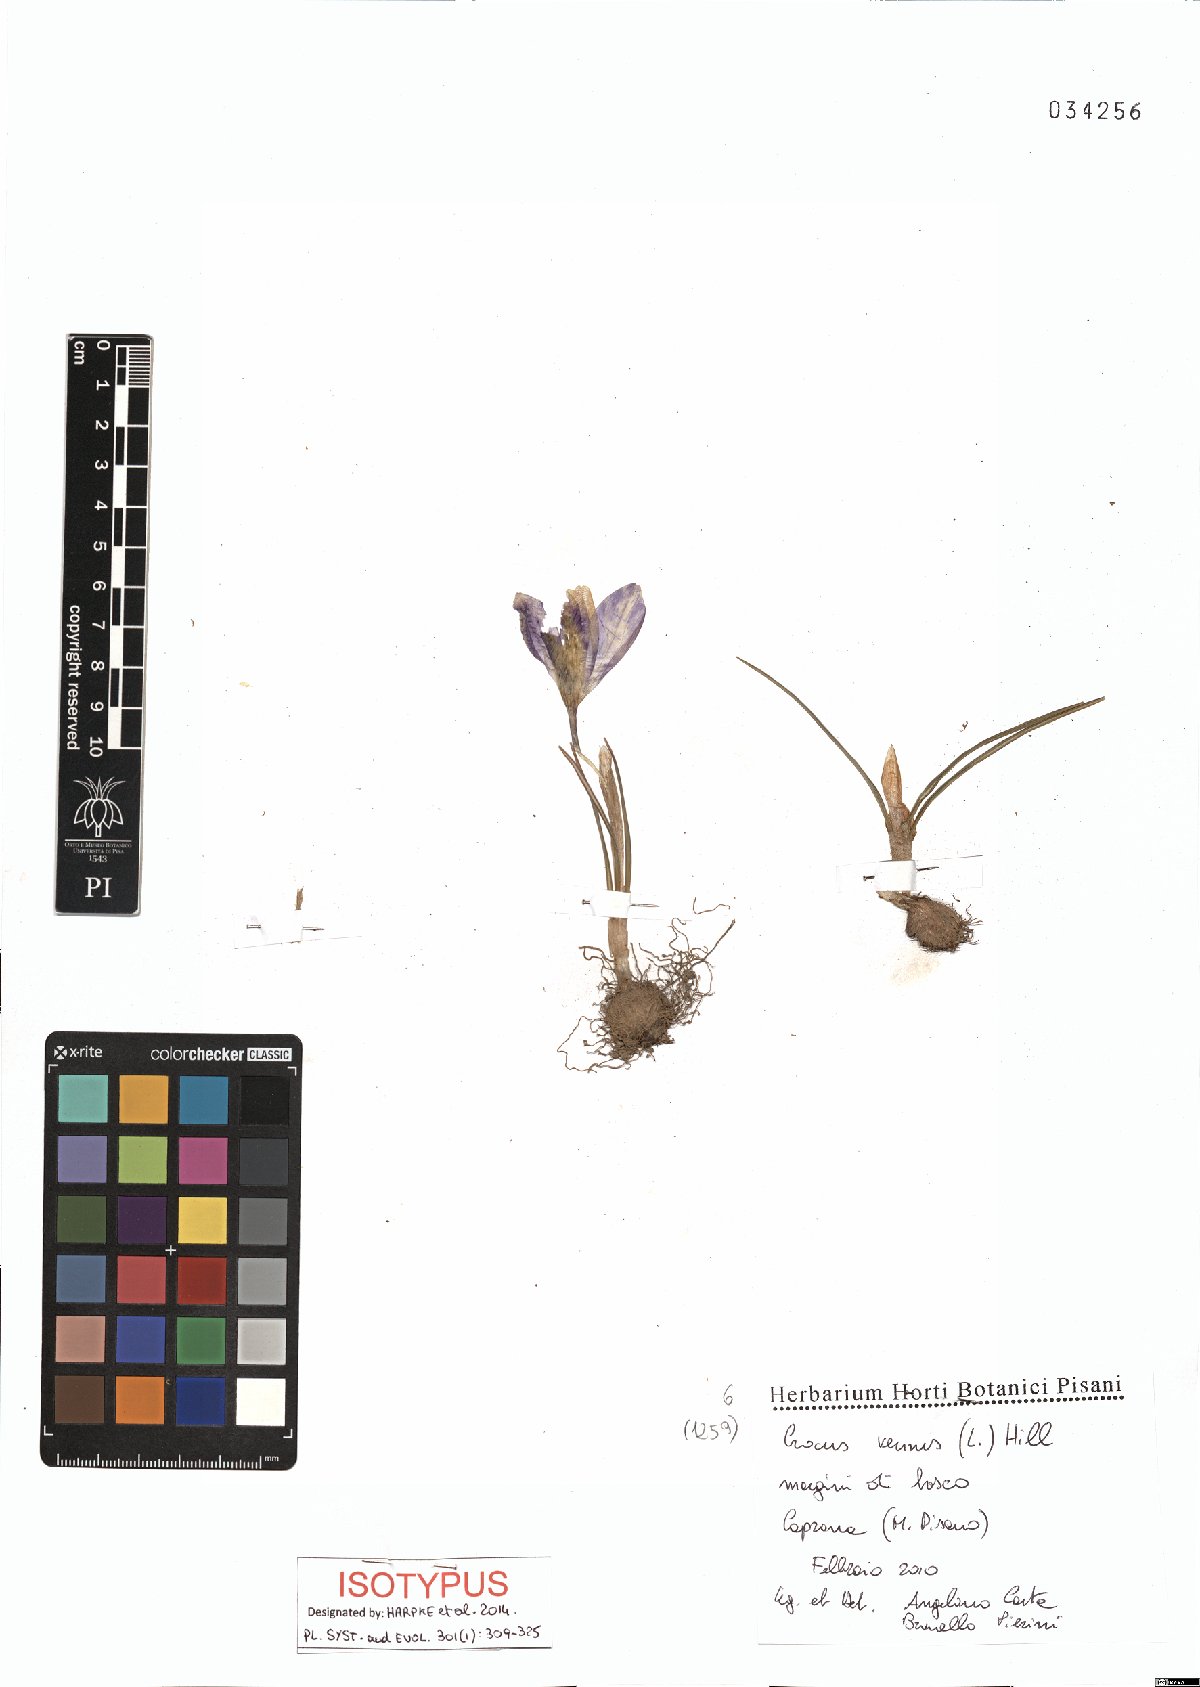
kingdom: Plantae
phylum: Tracheophyta
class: Liliopsida
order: Asparagales
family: Iridaceae
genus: Crocus
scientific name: Crocus vernus
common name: Spring crocus
